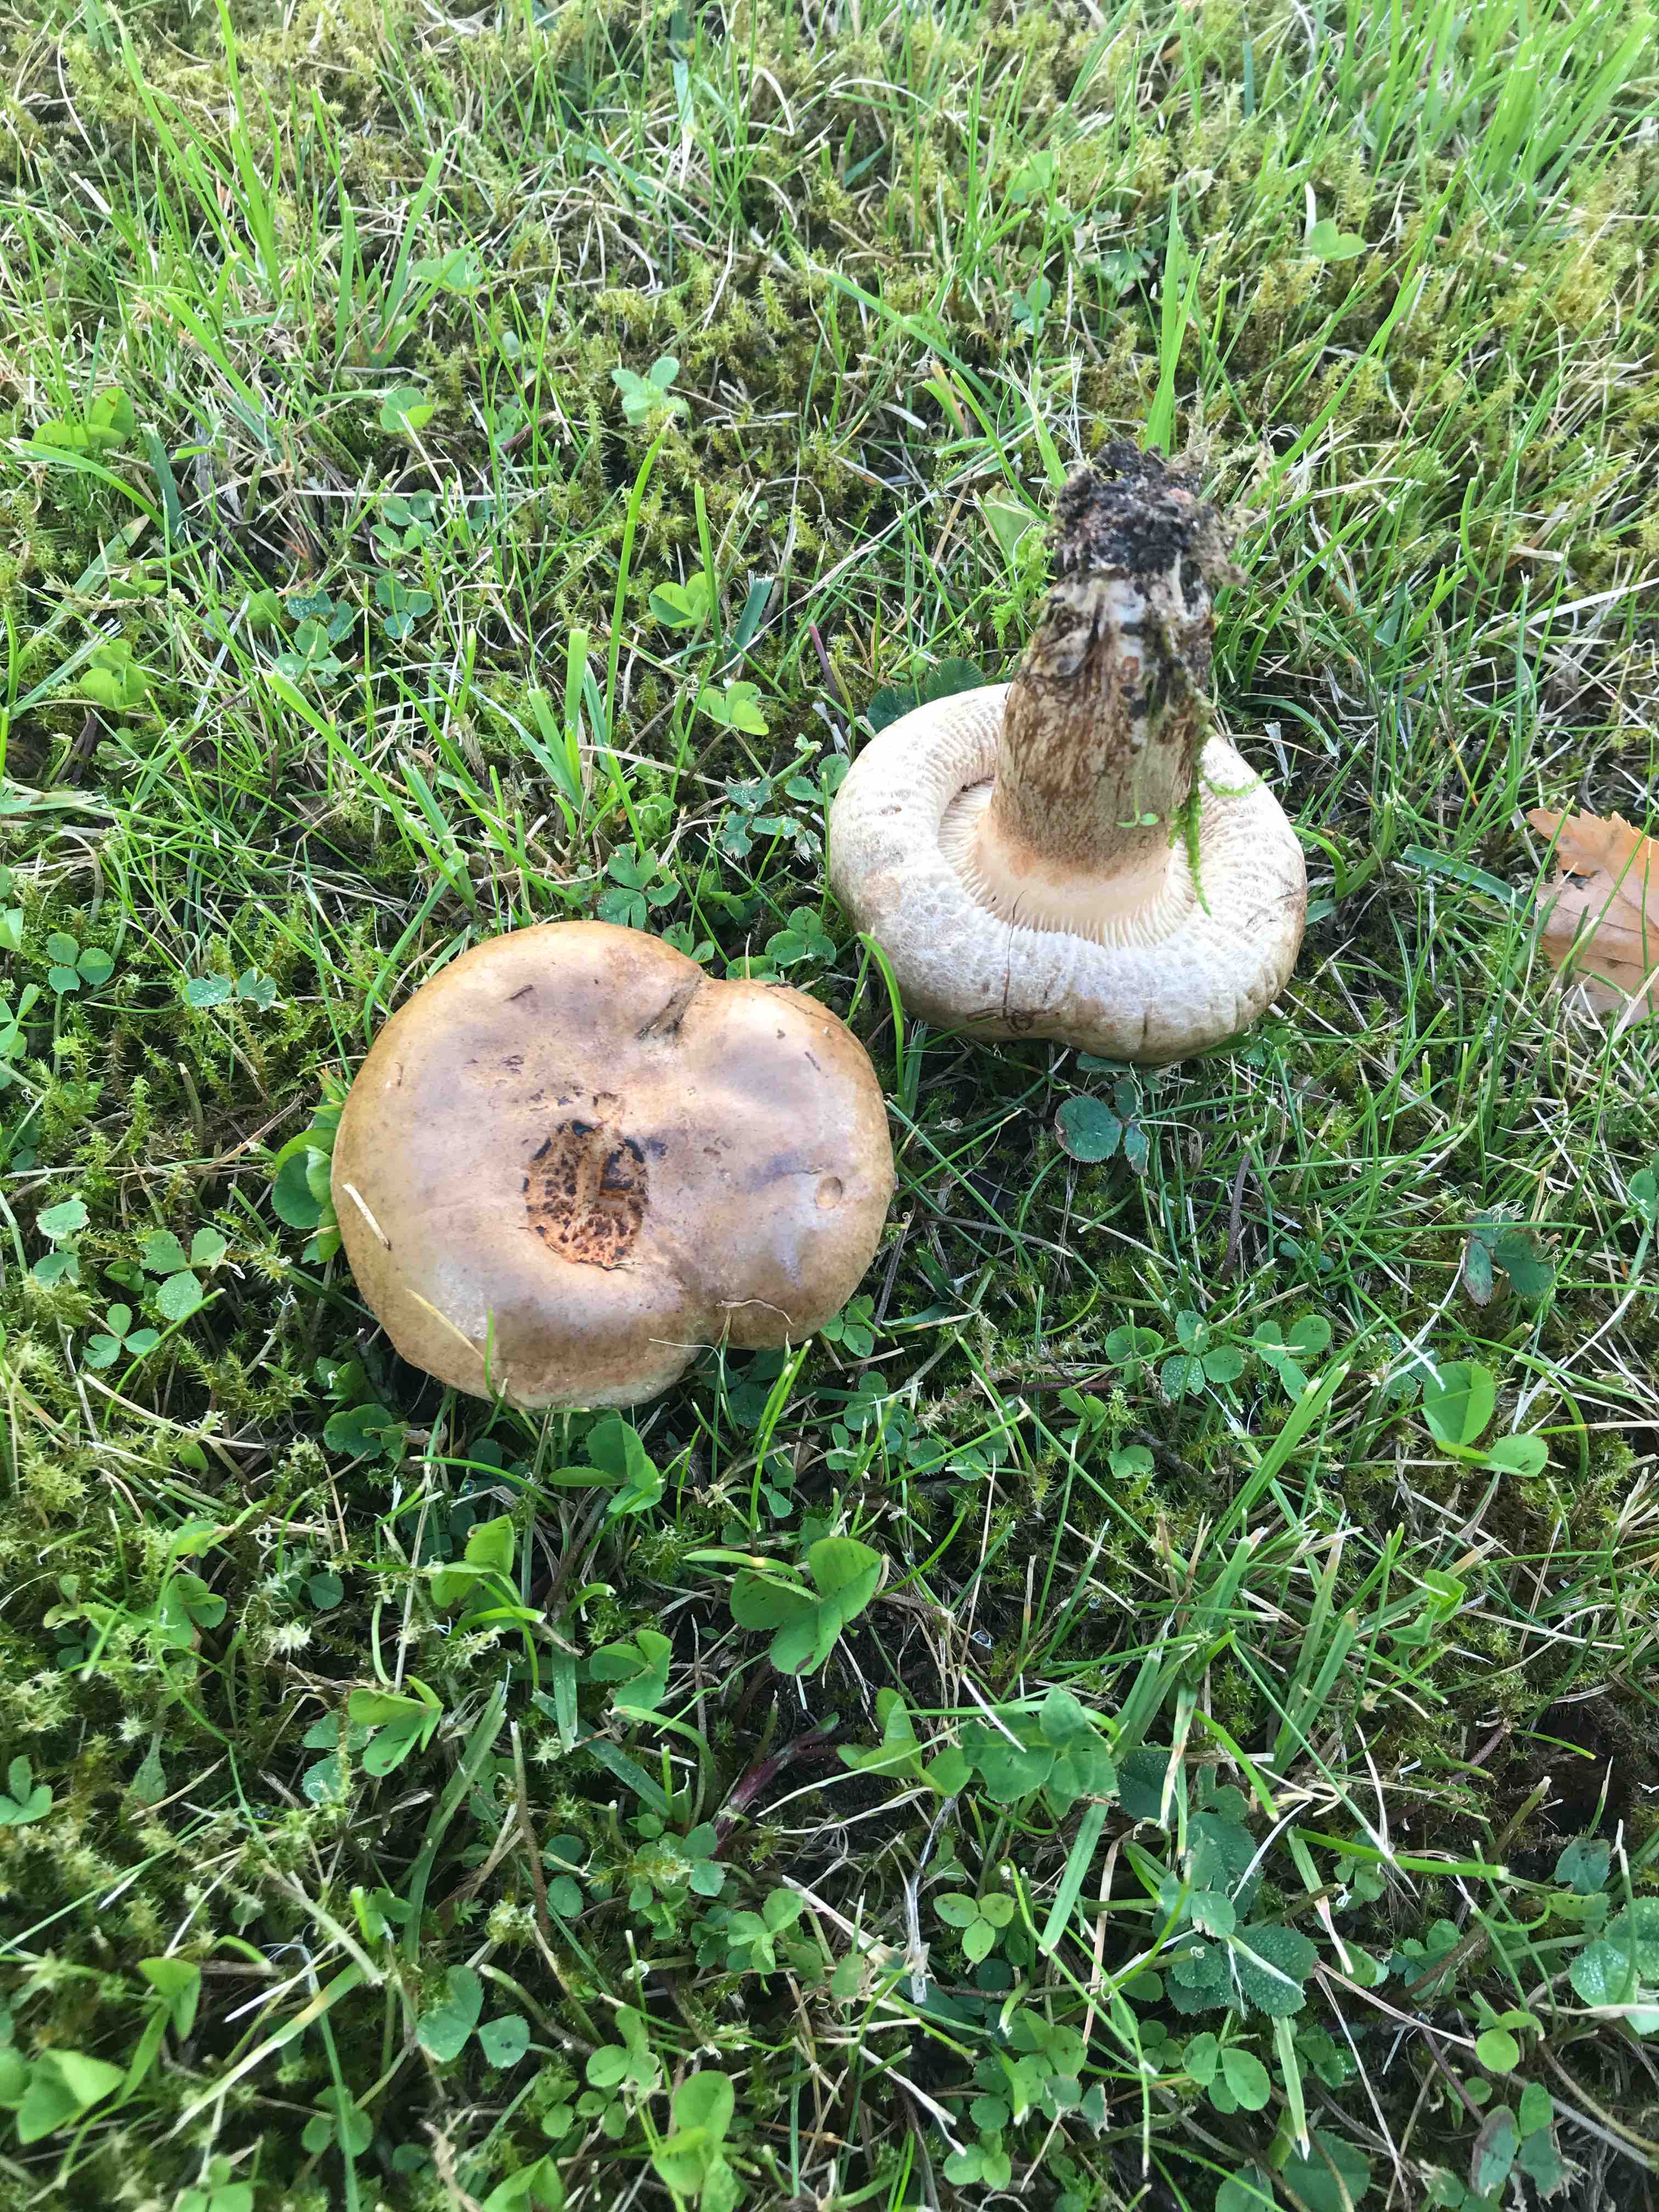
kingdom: Fungi
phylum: Basidiomycota
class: Agaricomycetes
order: Boletales
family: Paxillaceae
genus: Paxillus
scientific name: Paxillus
